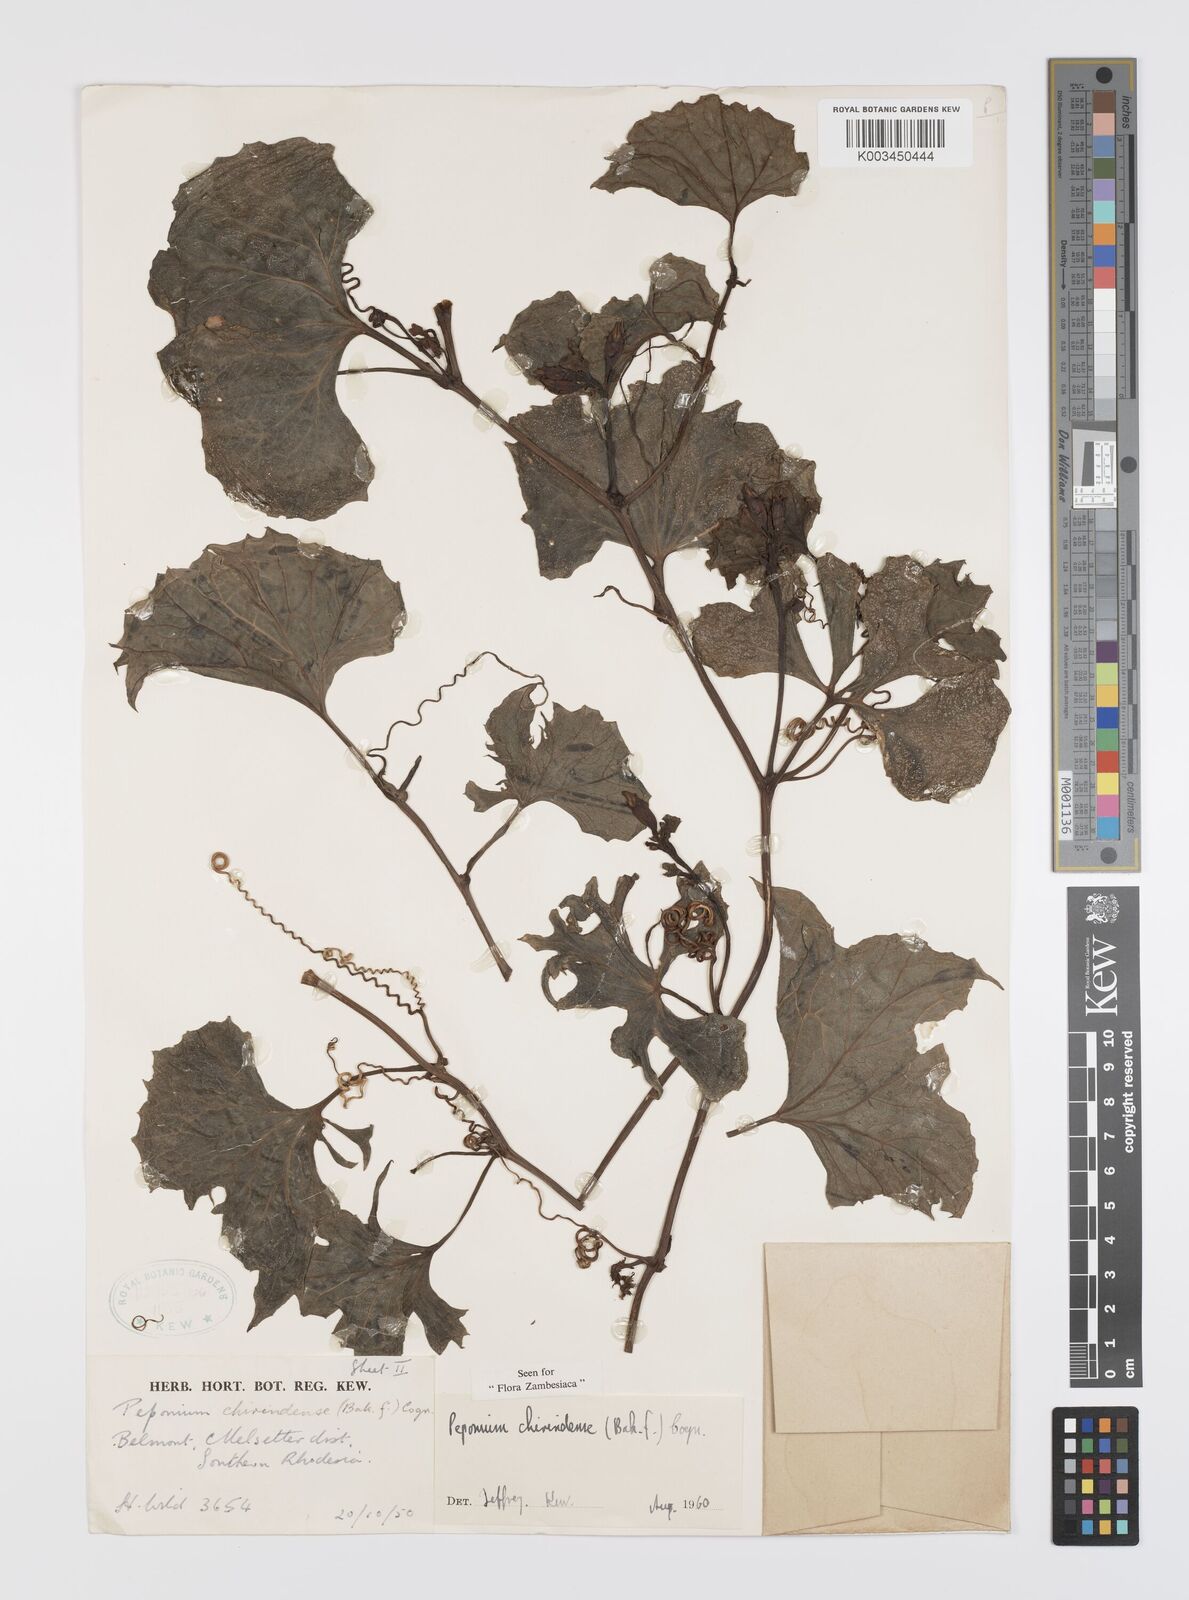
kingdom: Plantae
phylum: Tracheophyta
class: Magnoliopsida
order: Cucurbitales
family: Cucurbitaceae
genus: Peponium
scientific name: Peponium chirindense
